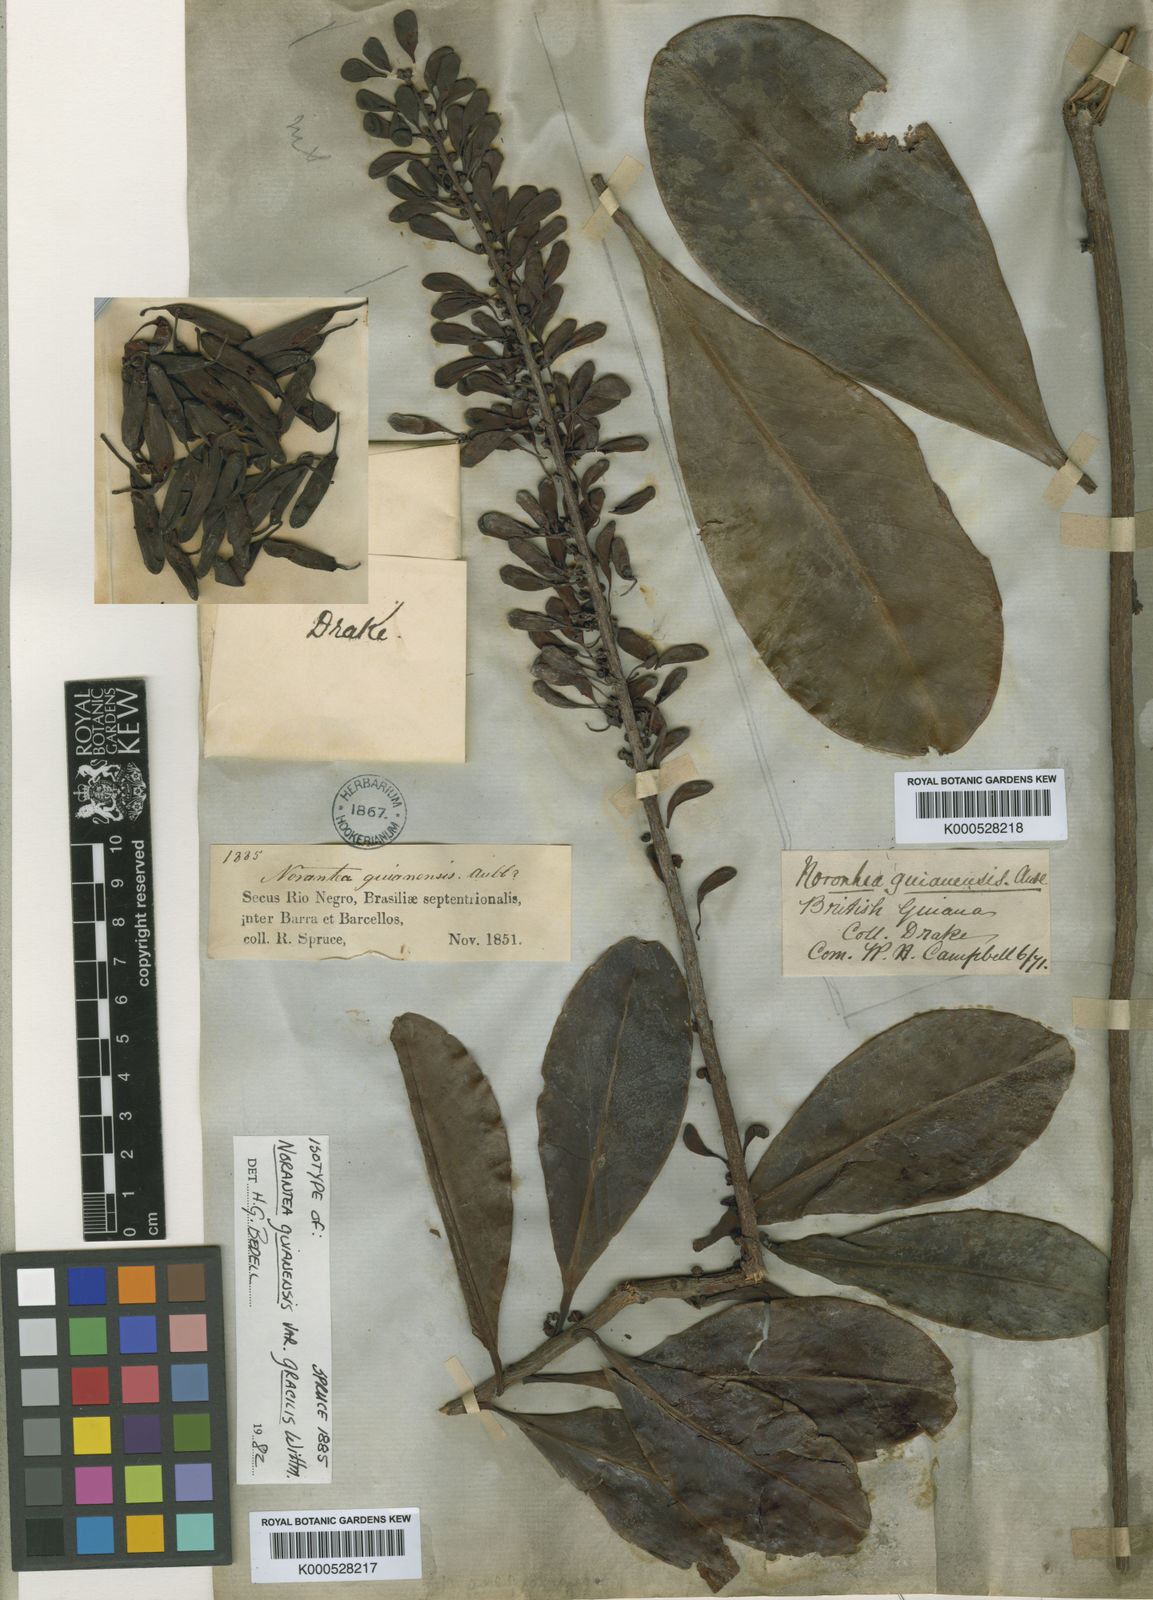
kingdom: Plantae
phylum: Tracheophyta
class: Magnoliopsida
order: Ericales
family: Marcgraviaceae
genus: Norantea
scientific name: Norantea guianensis
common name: Red hot poker vine
